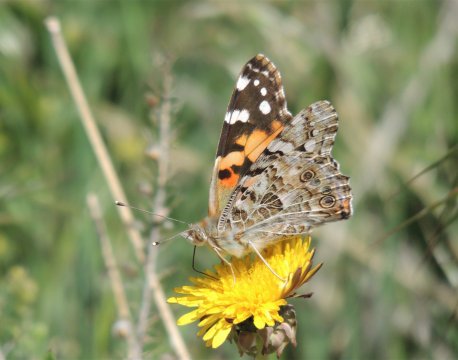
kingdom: Animalia
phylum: Arthropoda
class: Insecta
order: Lepidoptera
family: Nymphalidae
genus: Vanessa
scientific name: Vanessa cardui
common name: Painted Lady
